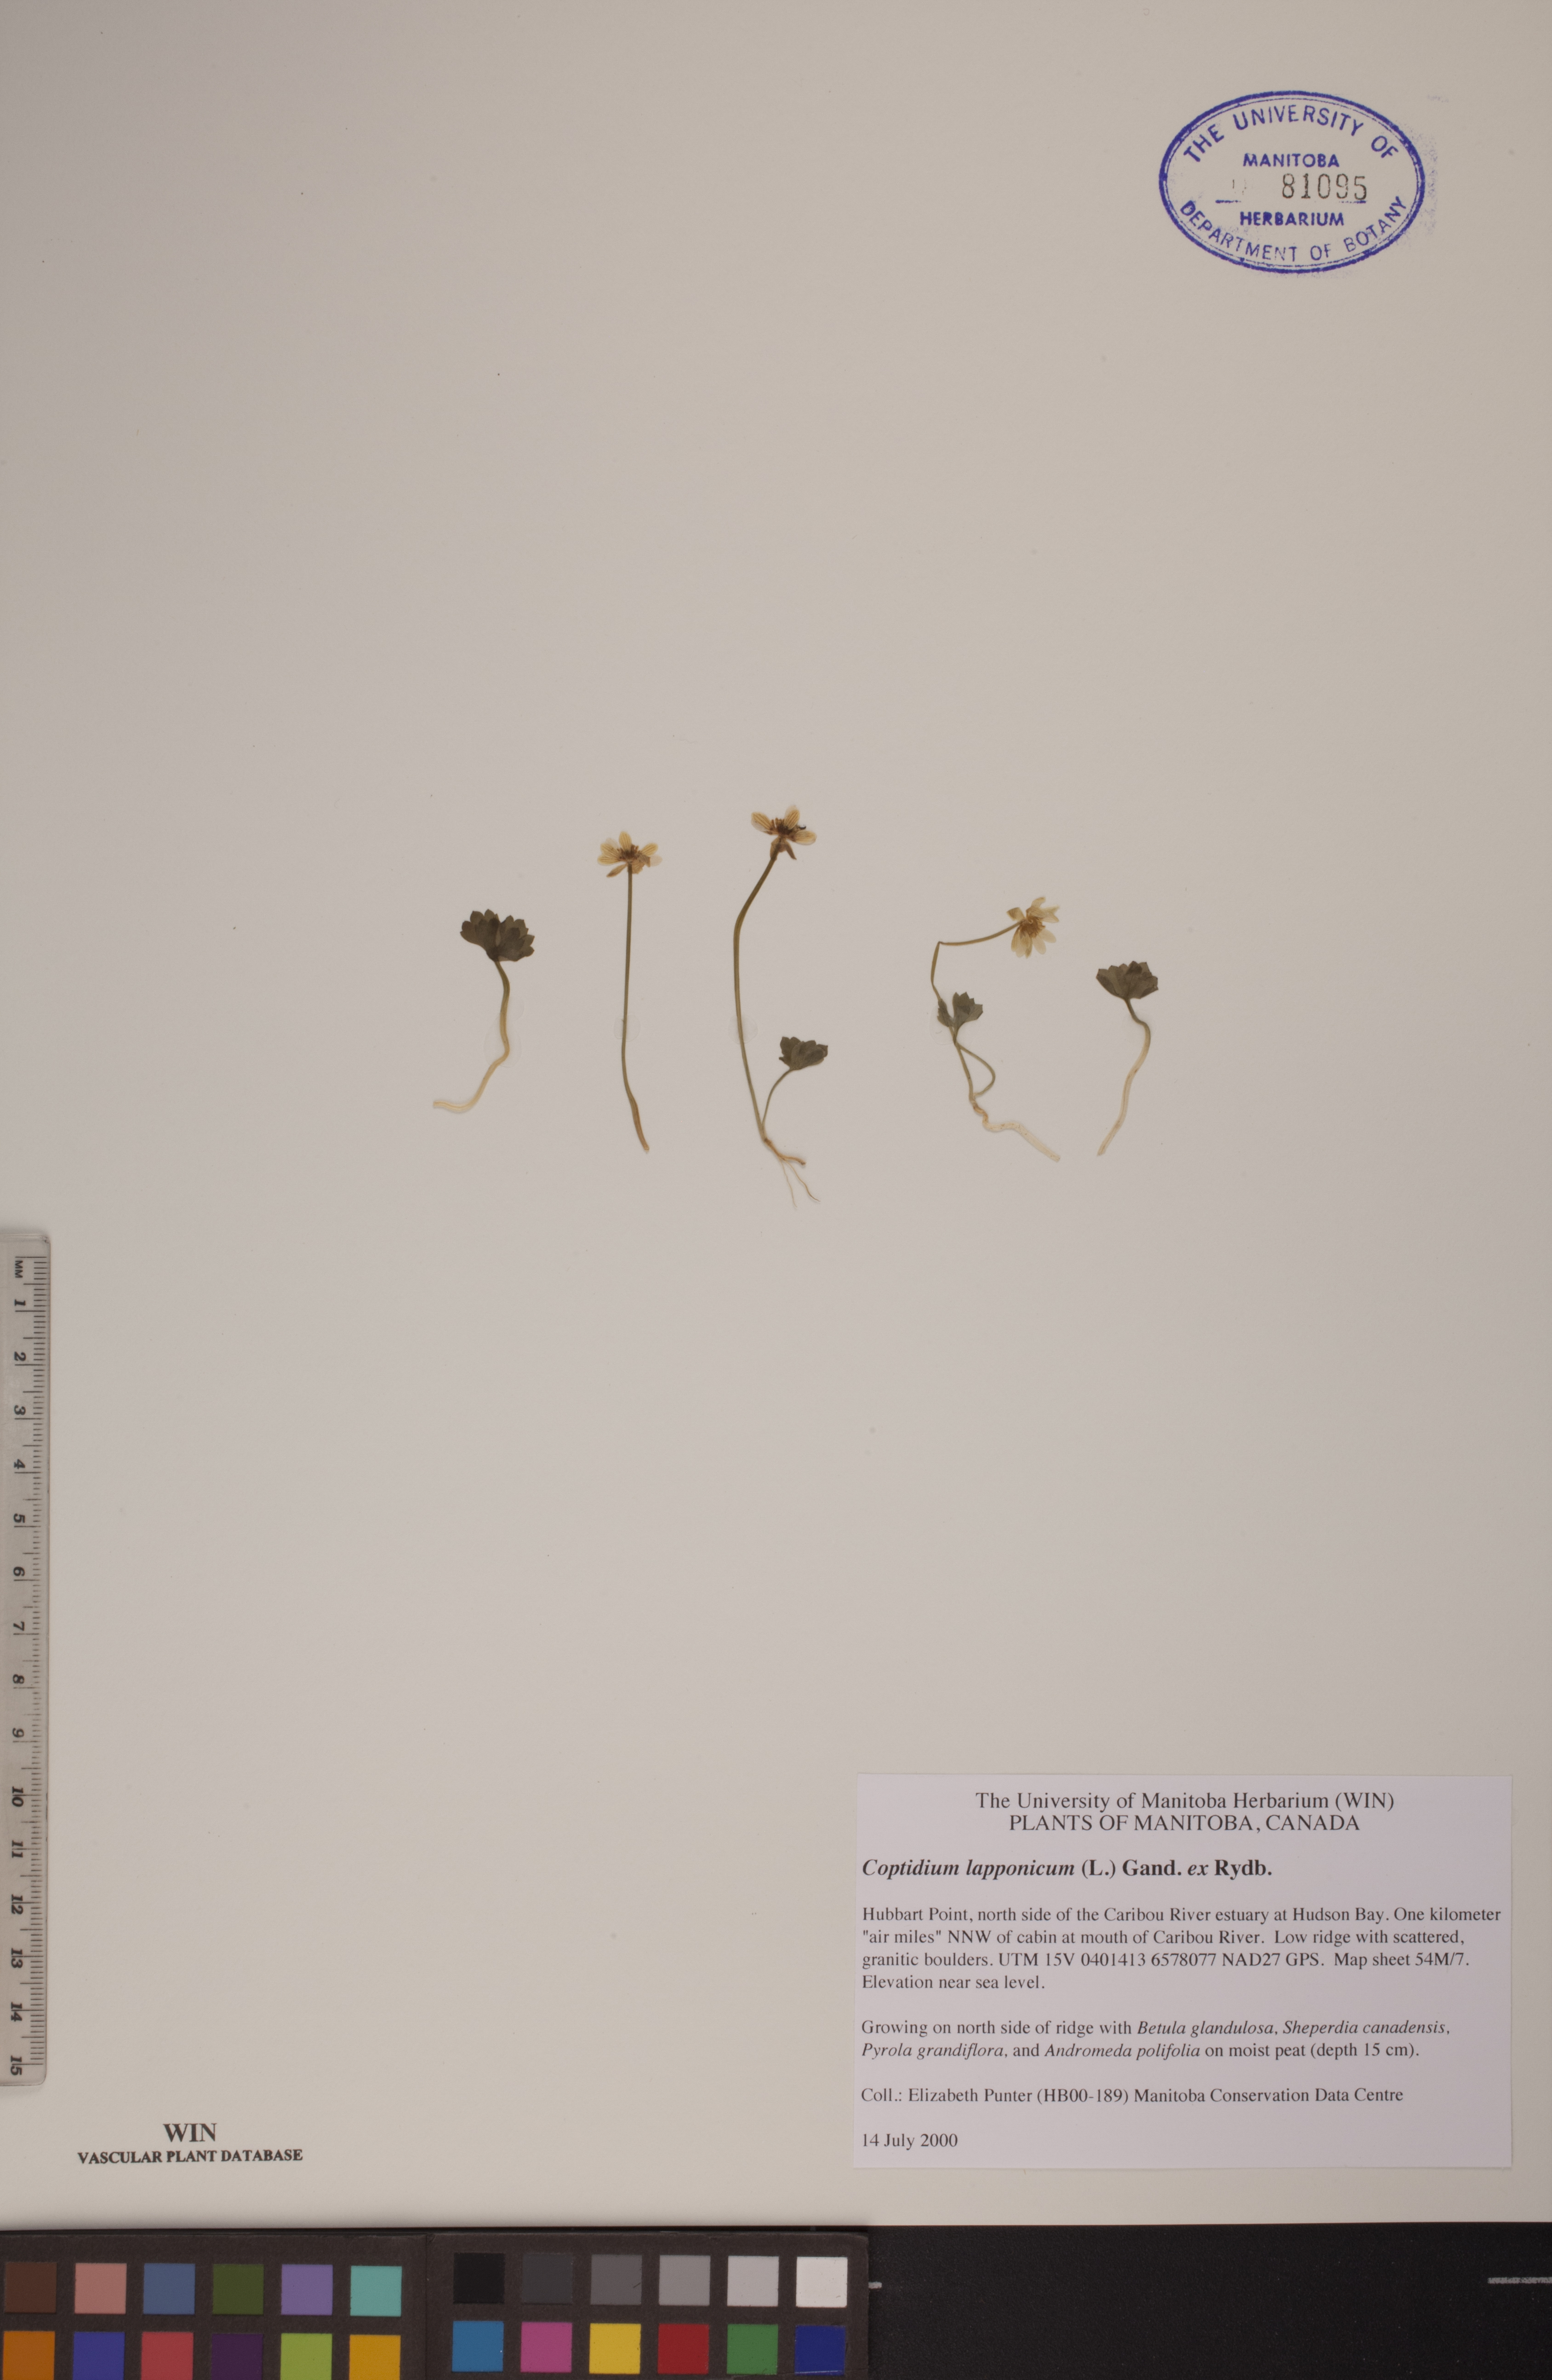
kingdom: Plantae
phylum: Tracheophyta
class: Magnoliopsida
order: Ranunculales
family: Ranunculaceae
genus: Coptidium
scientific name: Coptidium lapponicum
